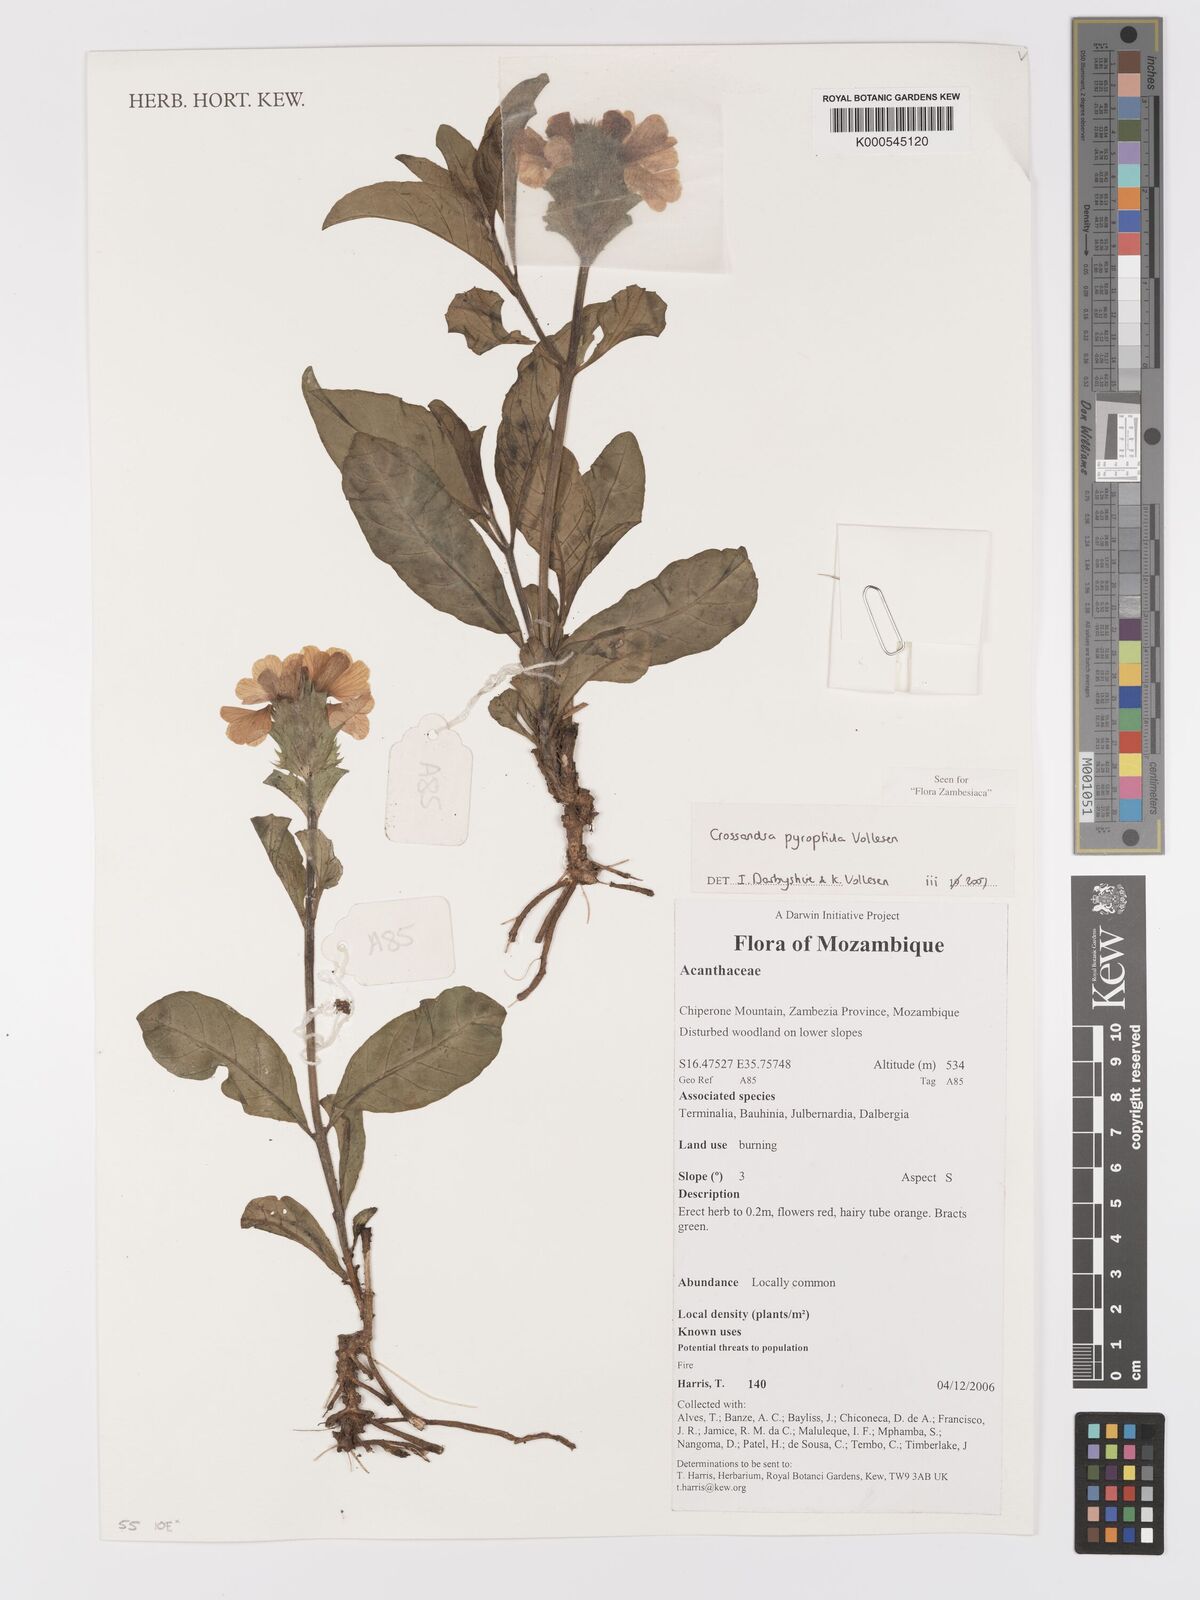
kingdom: Plantae
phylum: Tracheophyta
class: Magnoliopsida
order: Lamiales
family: Acanthaceae
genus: Crossandra
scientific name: Crossandra pyrophila
